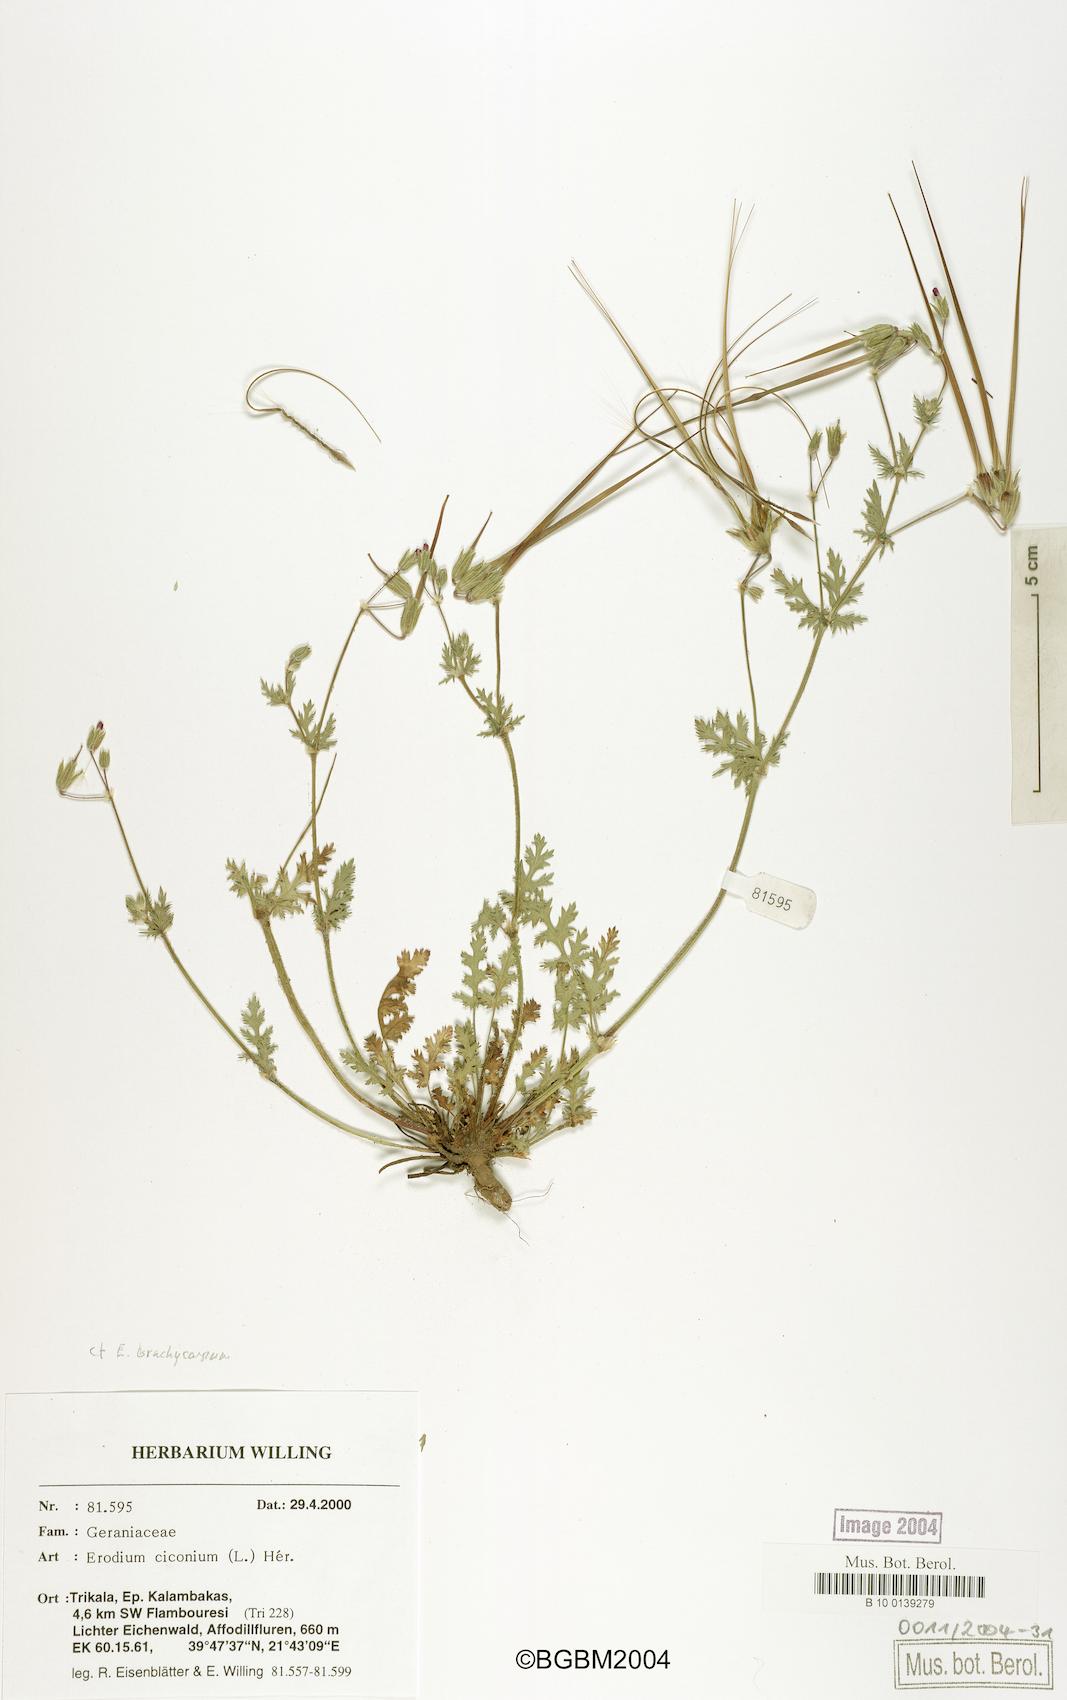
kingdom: Plantae
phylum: Tracheophyta
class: Magnoliopsida
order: Geraniales
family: Geraniaceae
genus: Erodium
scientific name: Erodium ciconium
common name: Common stork's bill
